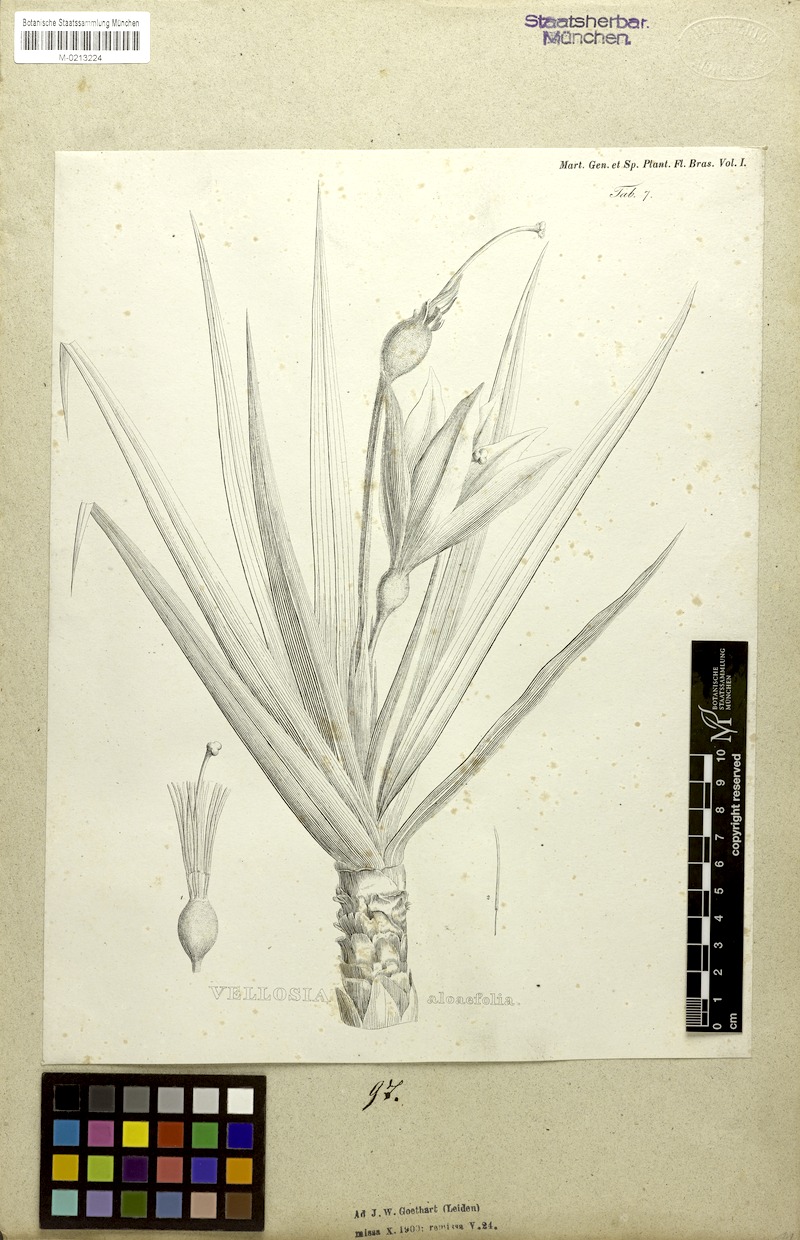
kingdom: Plantae
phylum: Tracheophyta
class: Liliopsida
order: Pandanales
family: Velloziaceae
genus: Vellozia
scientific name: Vellozia aloifolia
